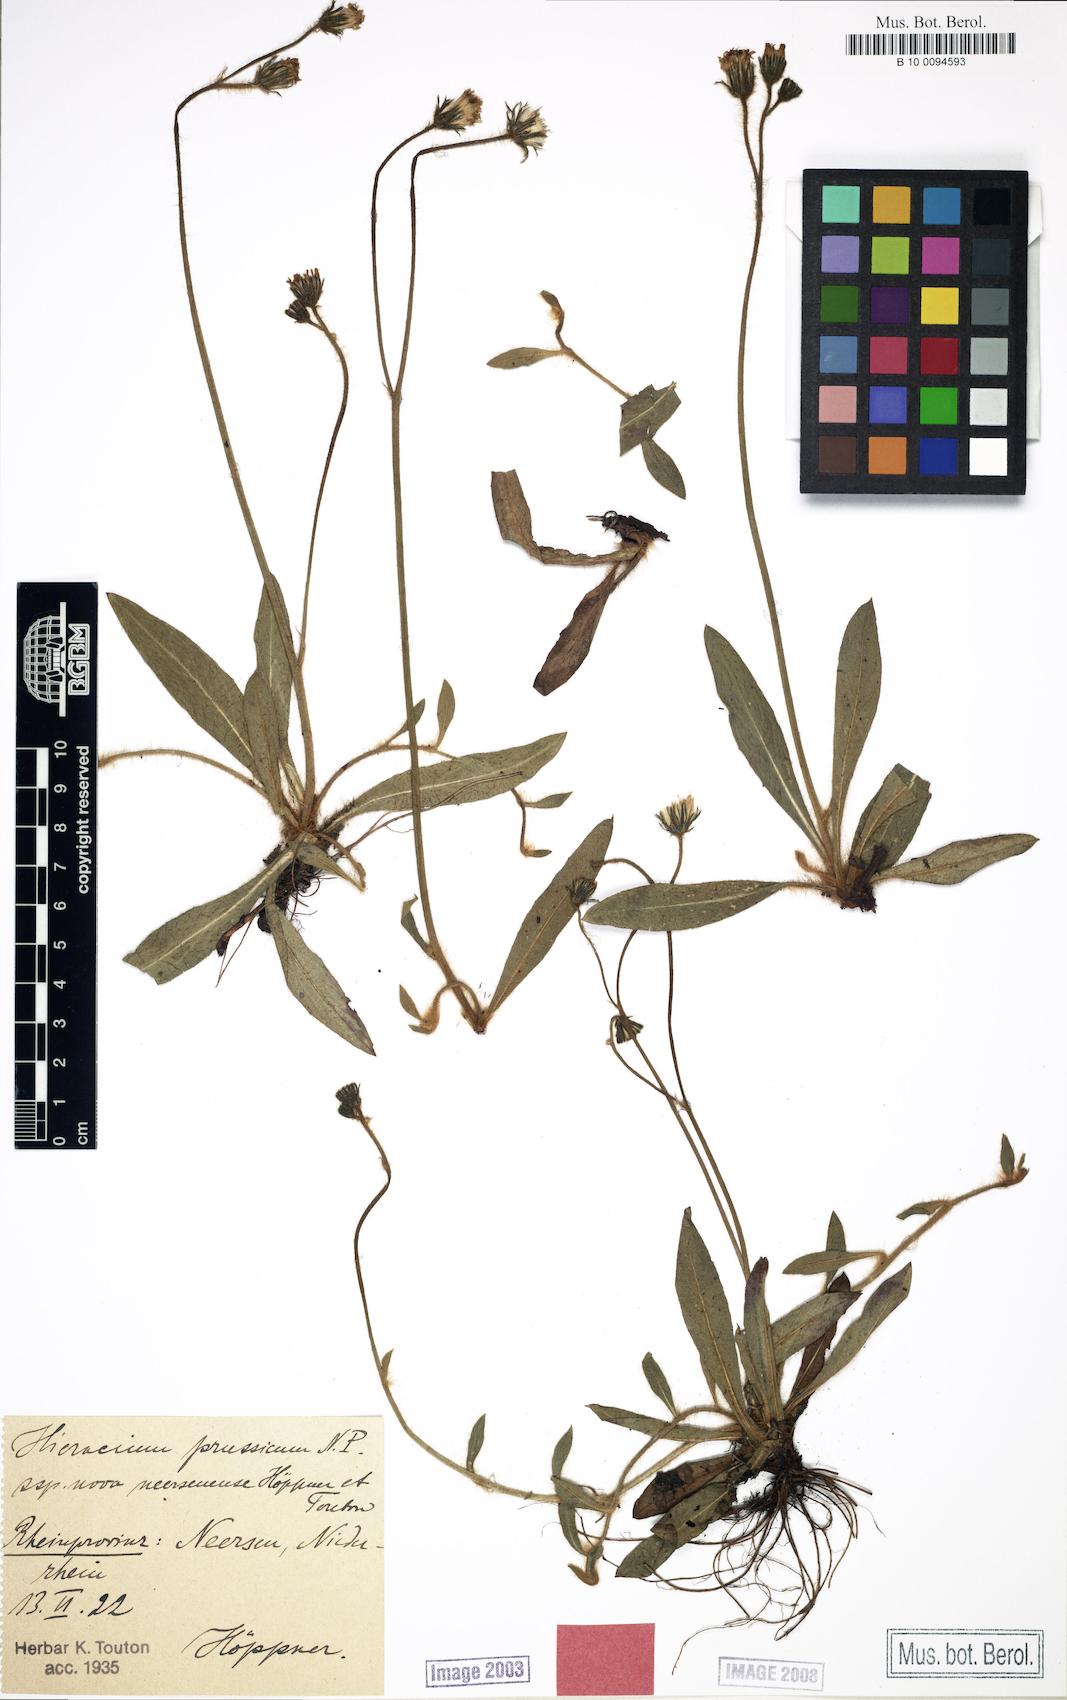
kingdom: Plantae
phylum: Tracheophyta
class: Magnoliopsida
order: Asterales
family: Asteraceae
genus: Pilosella
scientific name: Pilosella prussica
